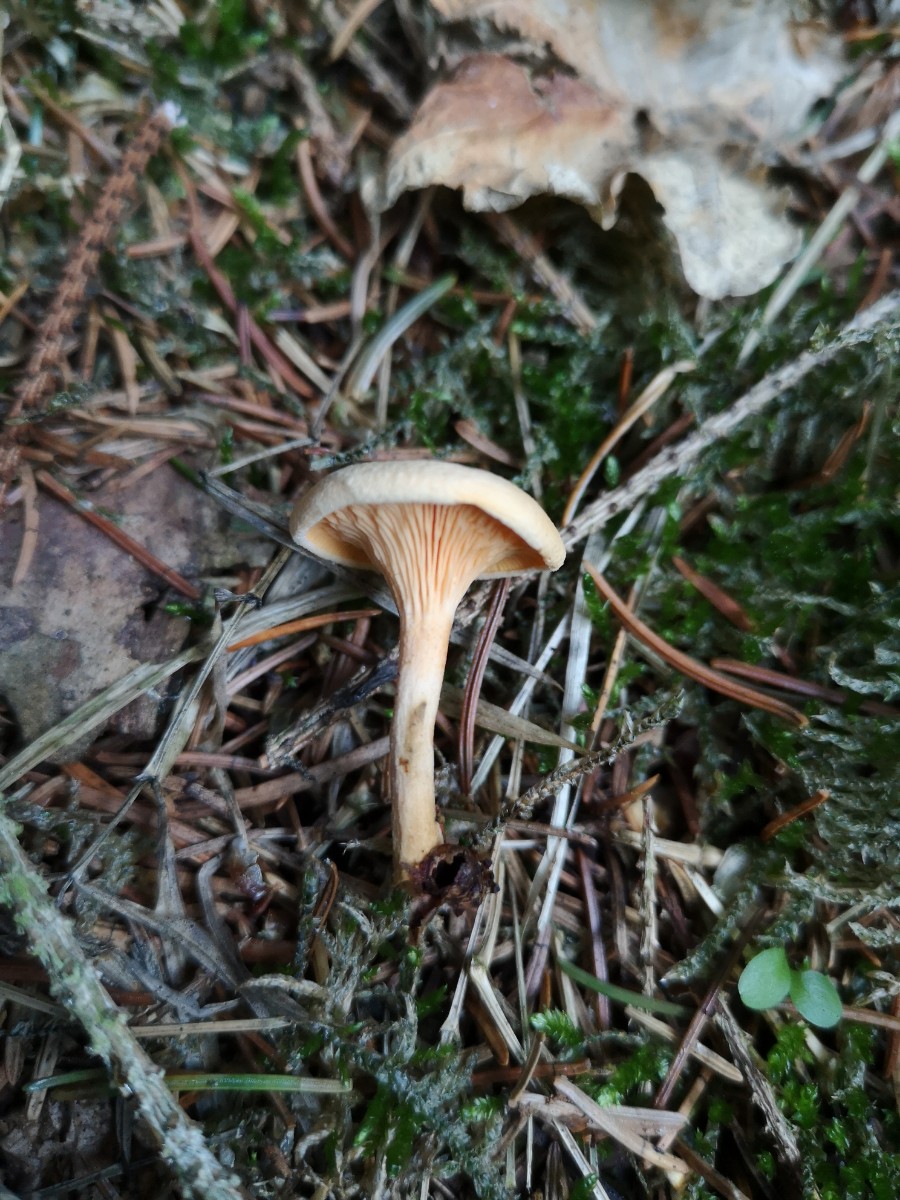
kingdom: Fungi
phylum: Basidiomycota
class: Agaricomycetes
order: Boletales
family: Hygrophoropsidaceae
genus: Hygrophoropsis
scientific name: Hygrophoropsis aurantiaca
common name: almindelig orangekantarel
